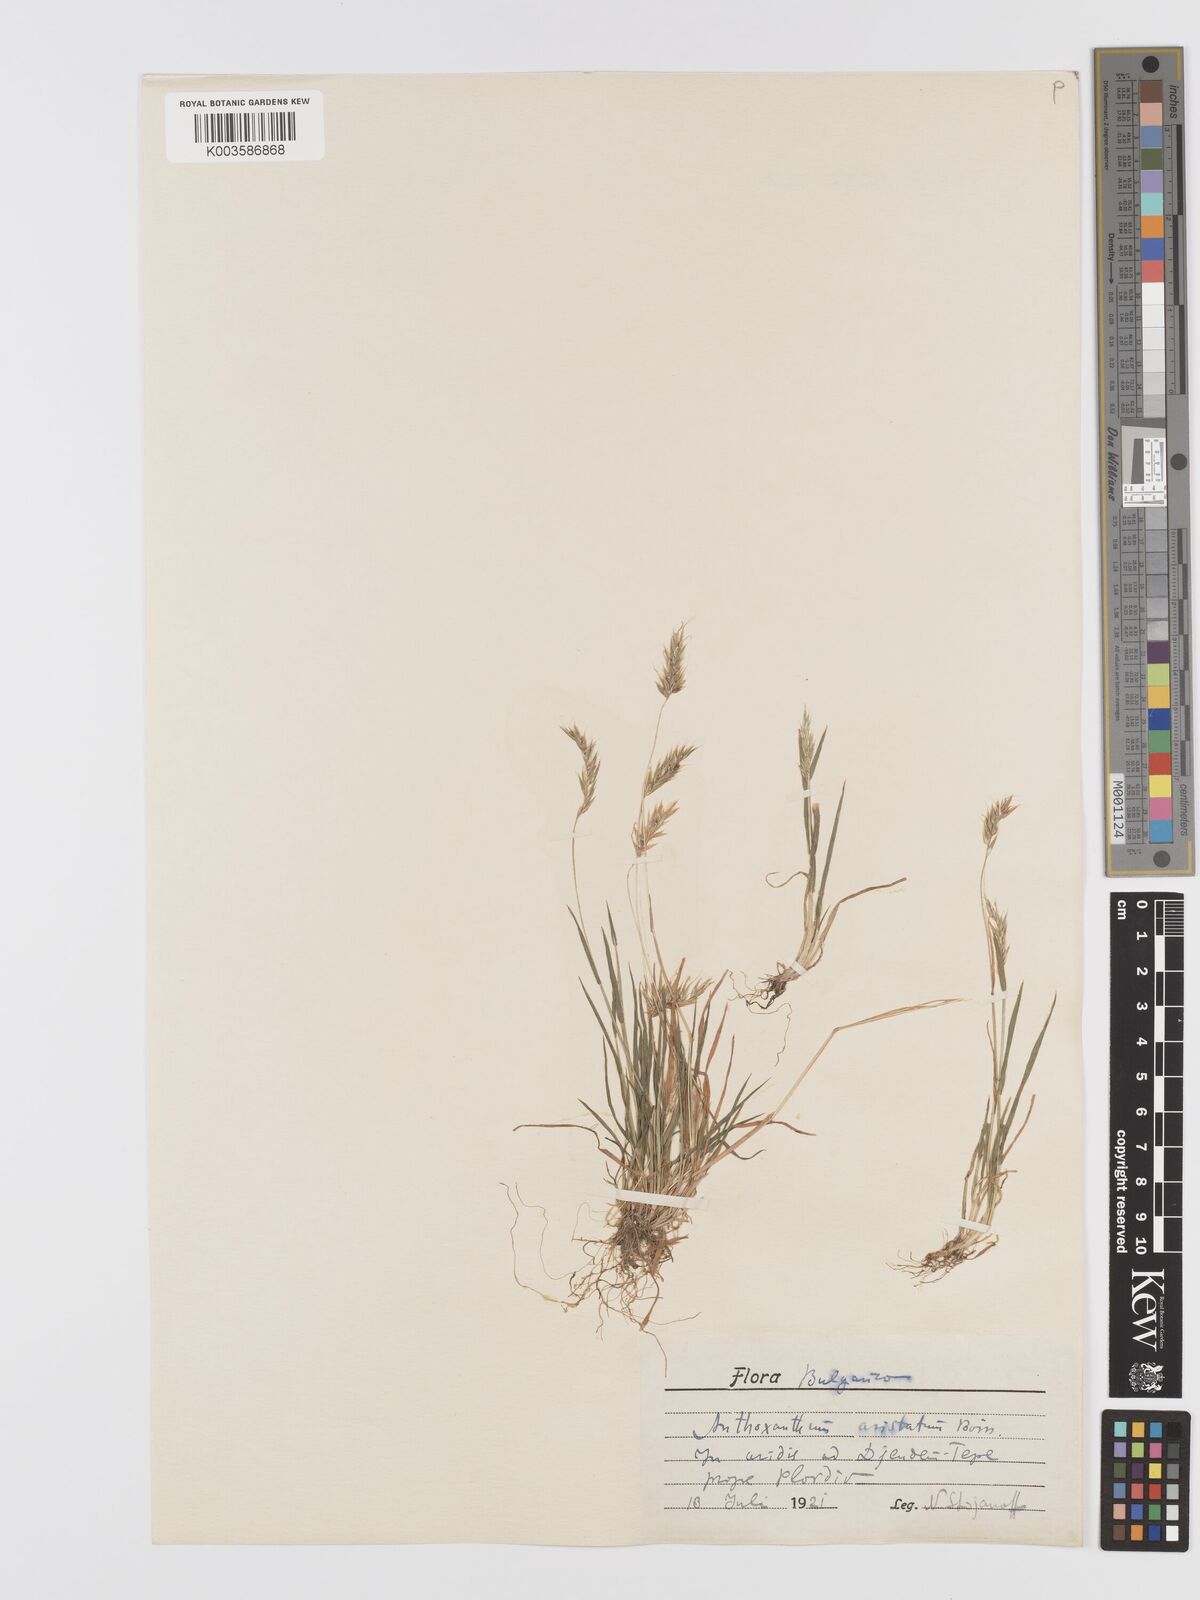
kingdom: Plantae
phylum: Tracheophyta
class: Liliopsida
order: Poales
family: Poaceae
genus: Anthoxanthum
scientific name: Anthoxanthum
